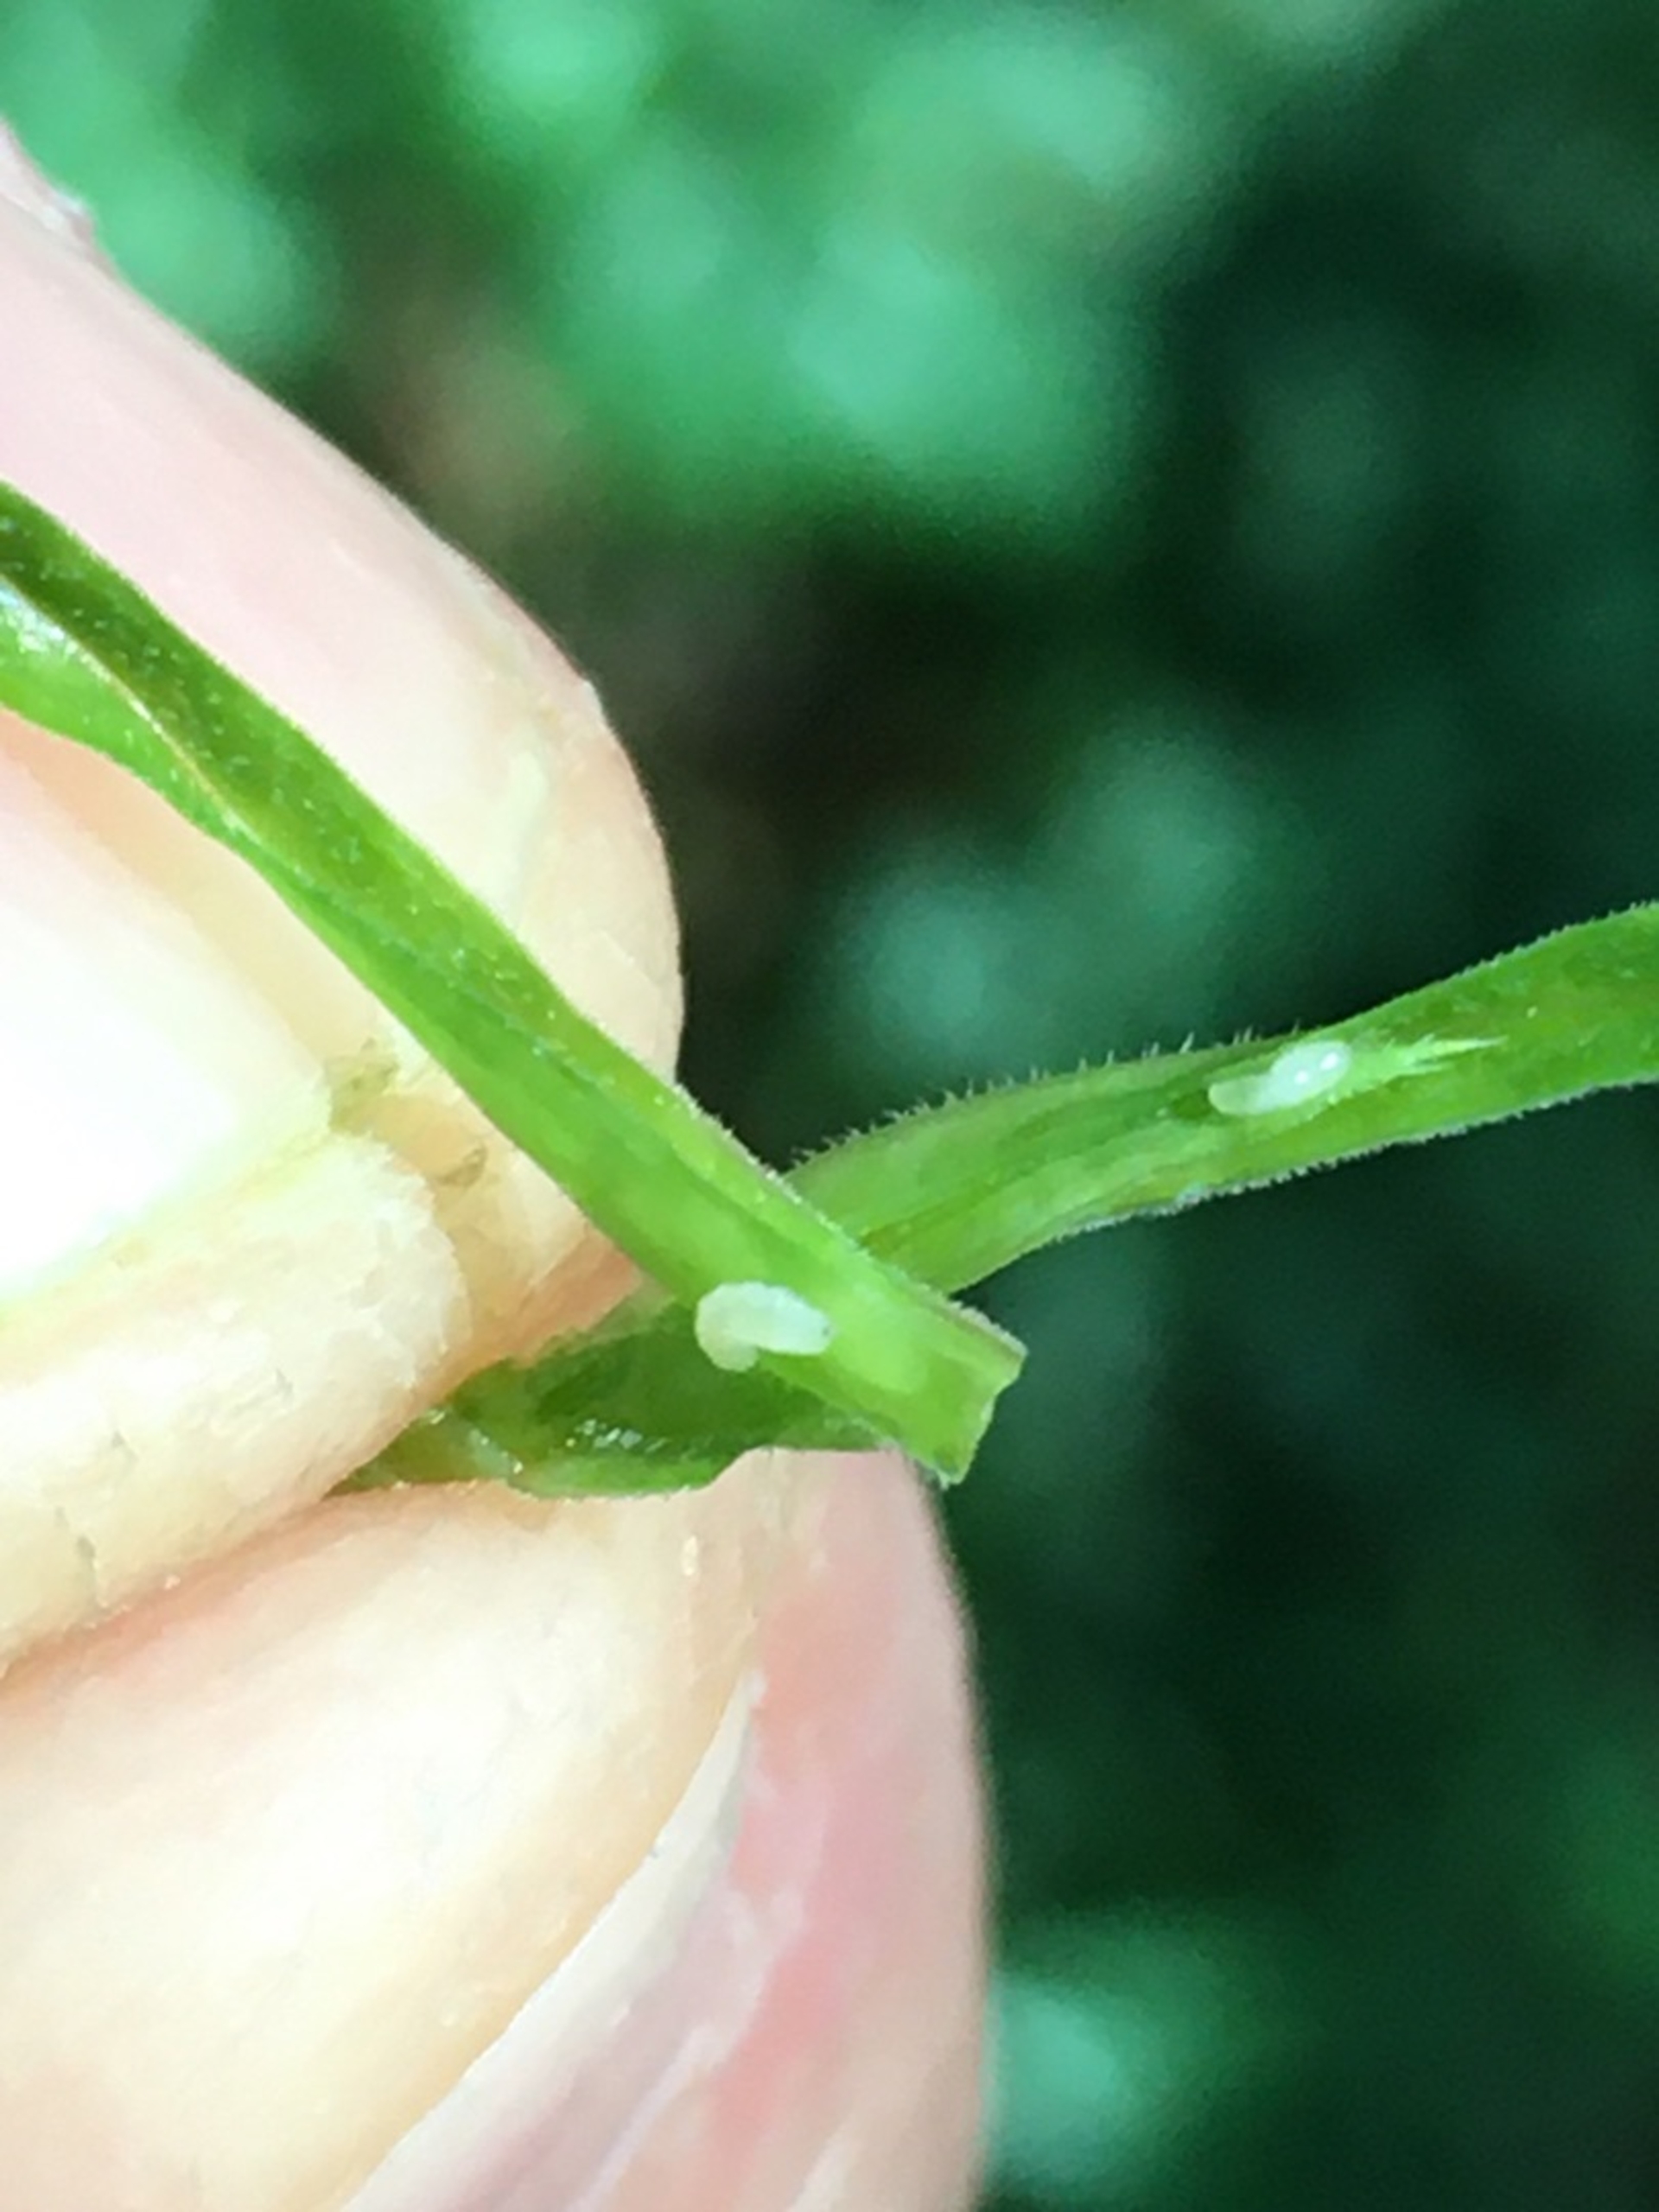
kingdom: Animalia
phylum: Arthropoda
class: Insecta
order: Diptera
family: Cecidomyiidae
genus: Macrolabis
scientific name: Macrolabis holosteae
